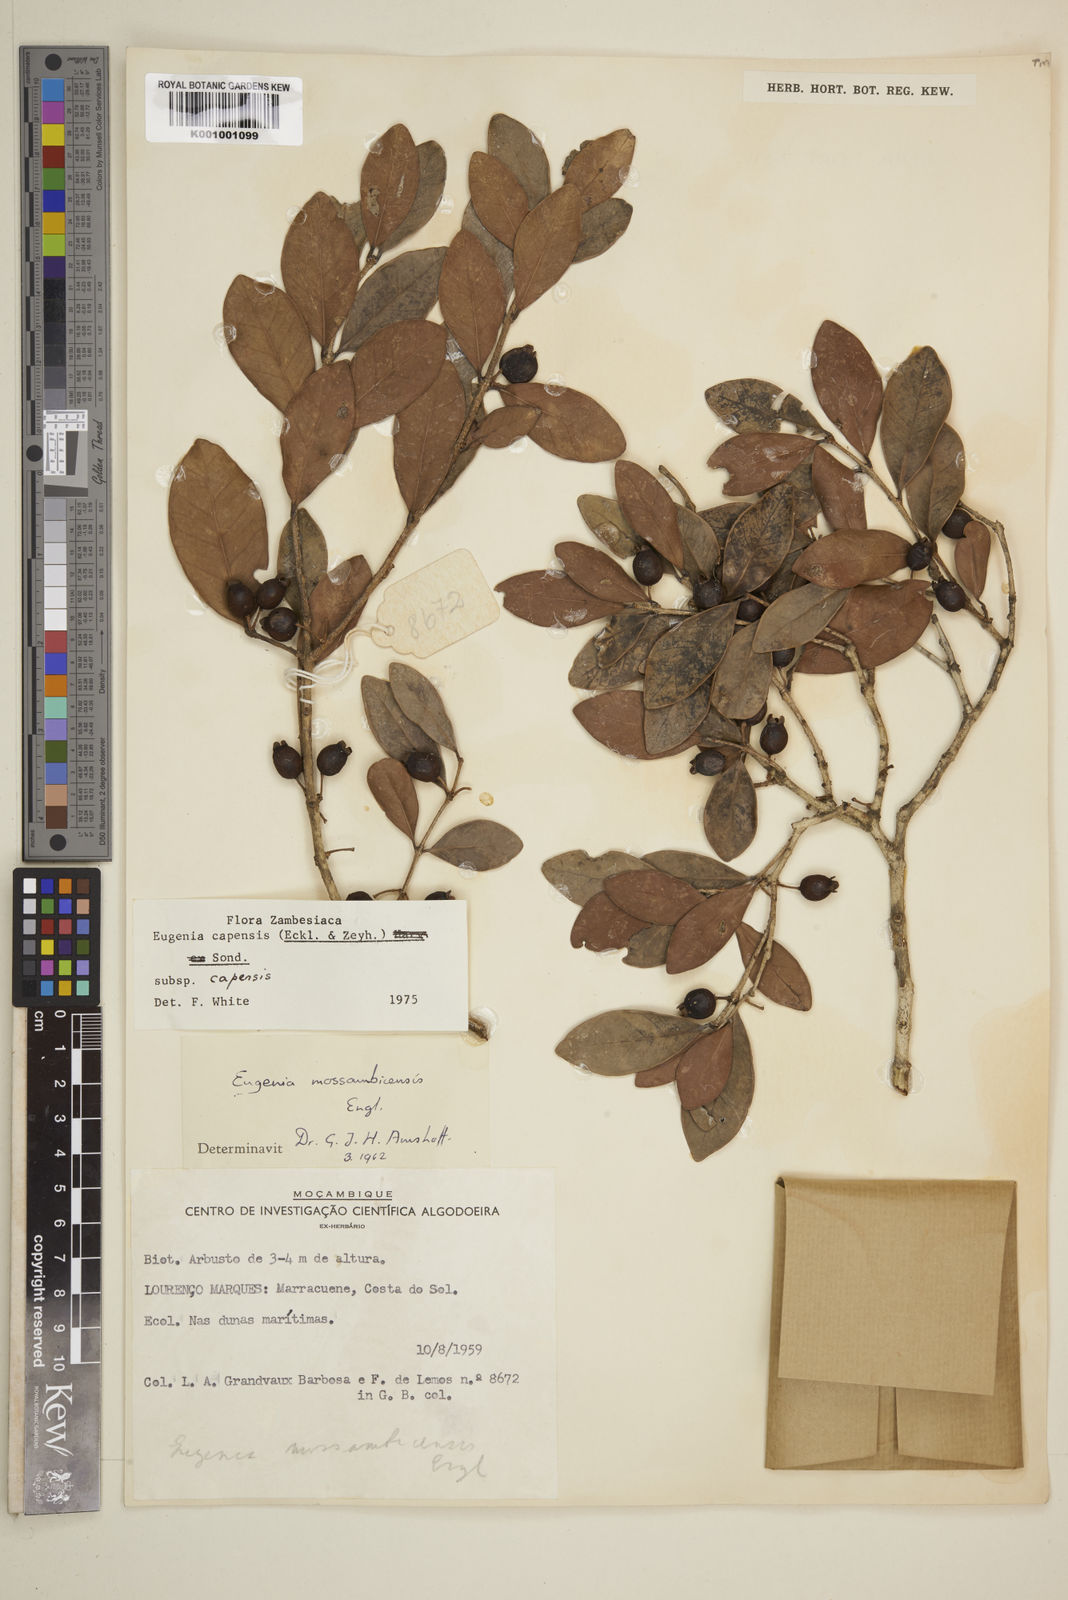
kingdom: Plantae
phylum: Tracheophyta
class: Magnoliopsida
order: Myrtales
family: Myrtaceae
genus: Eugenia
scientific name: Eugenia capensis
